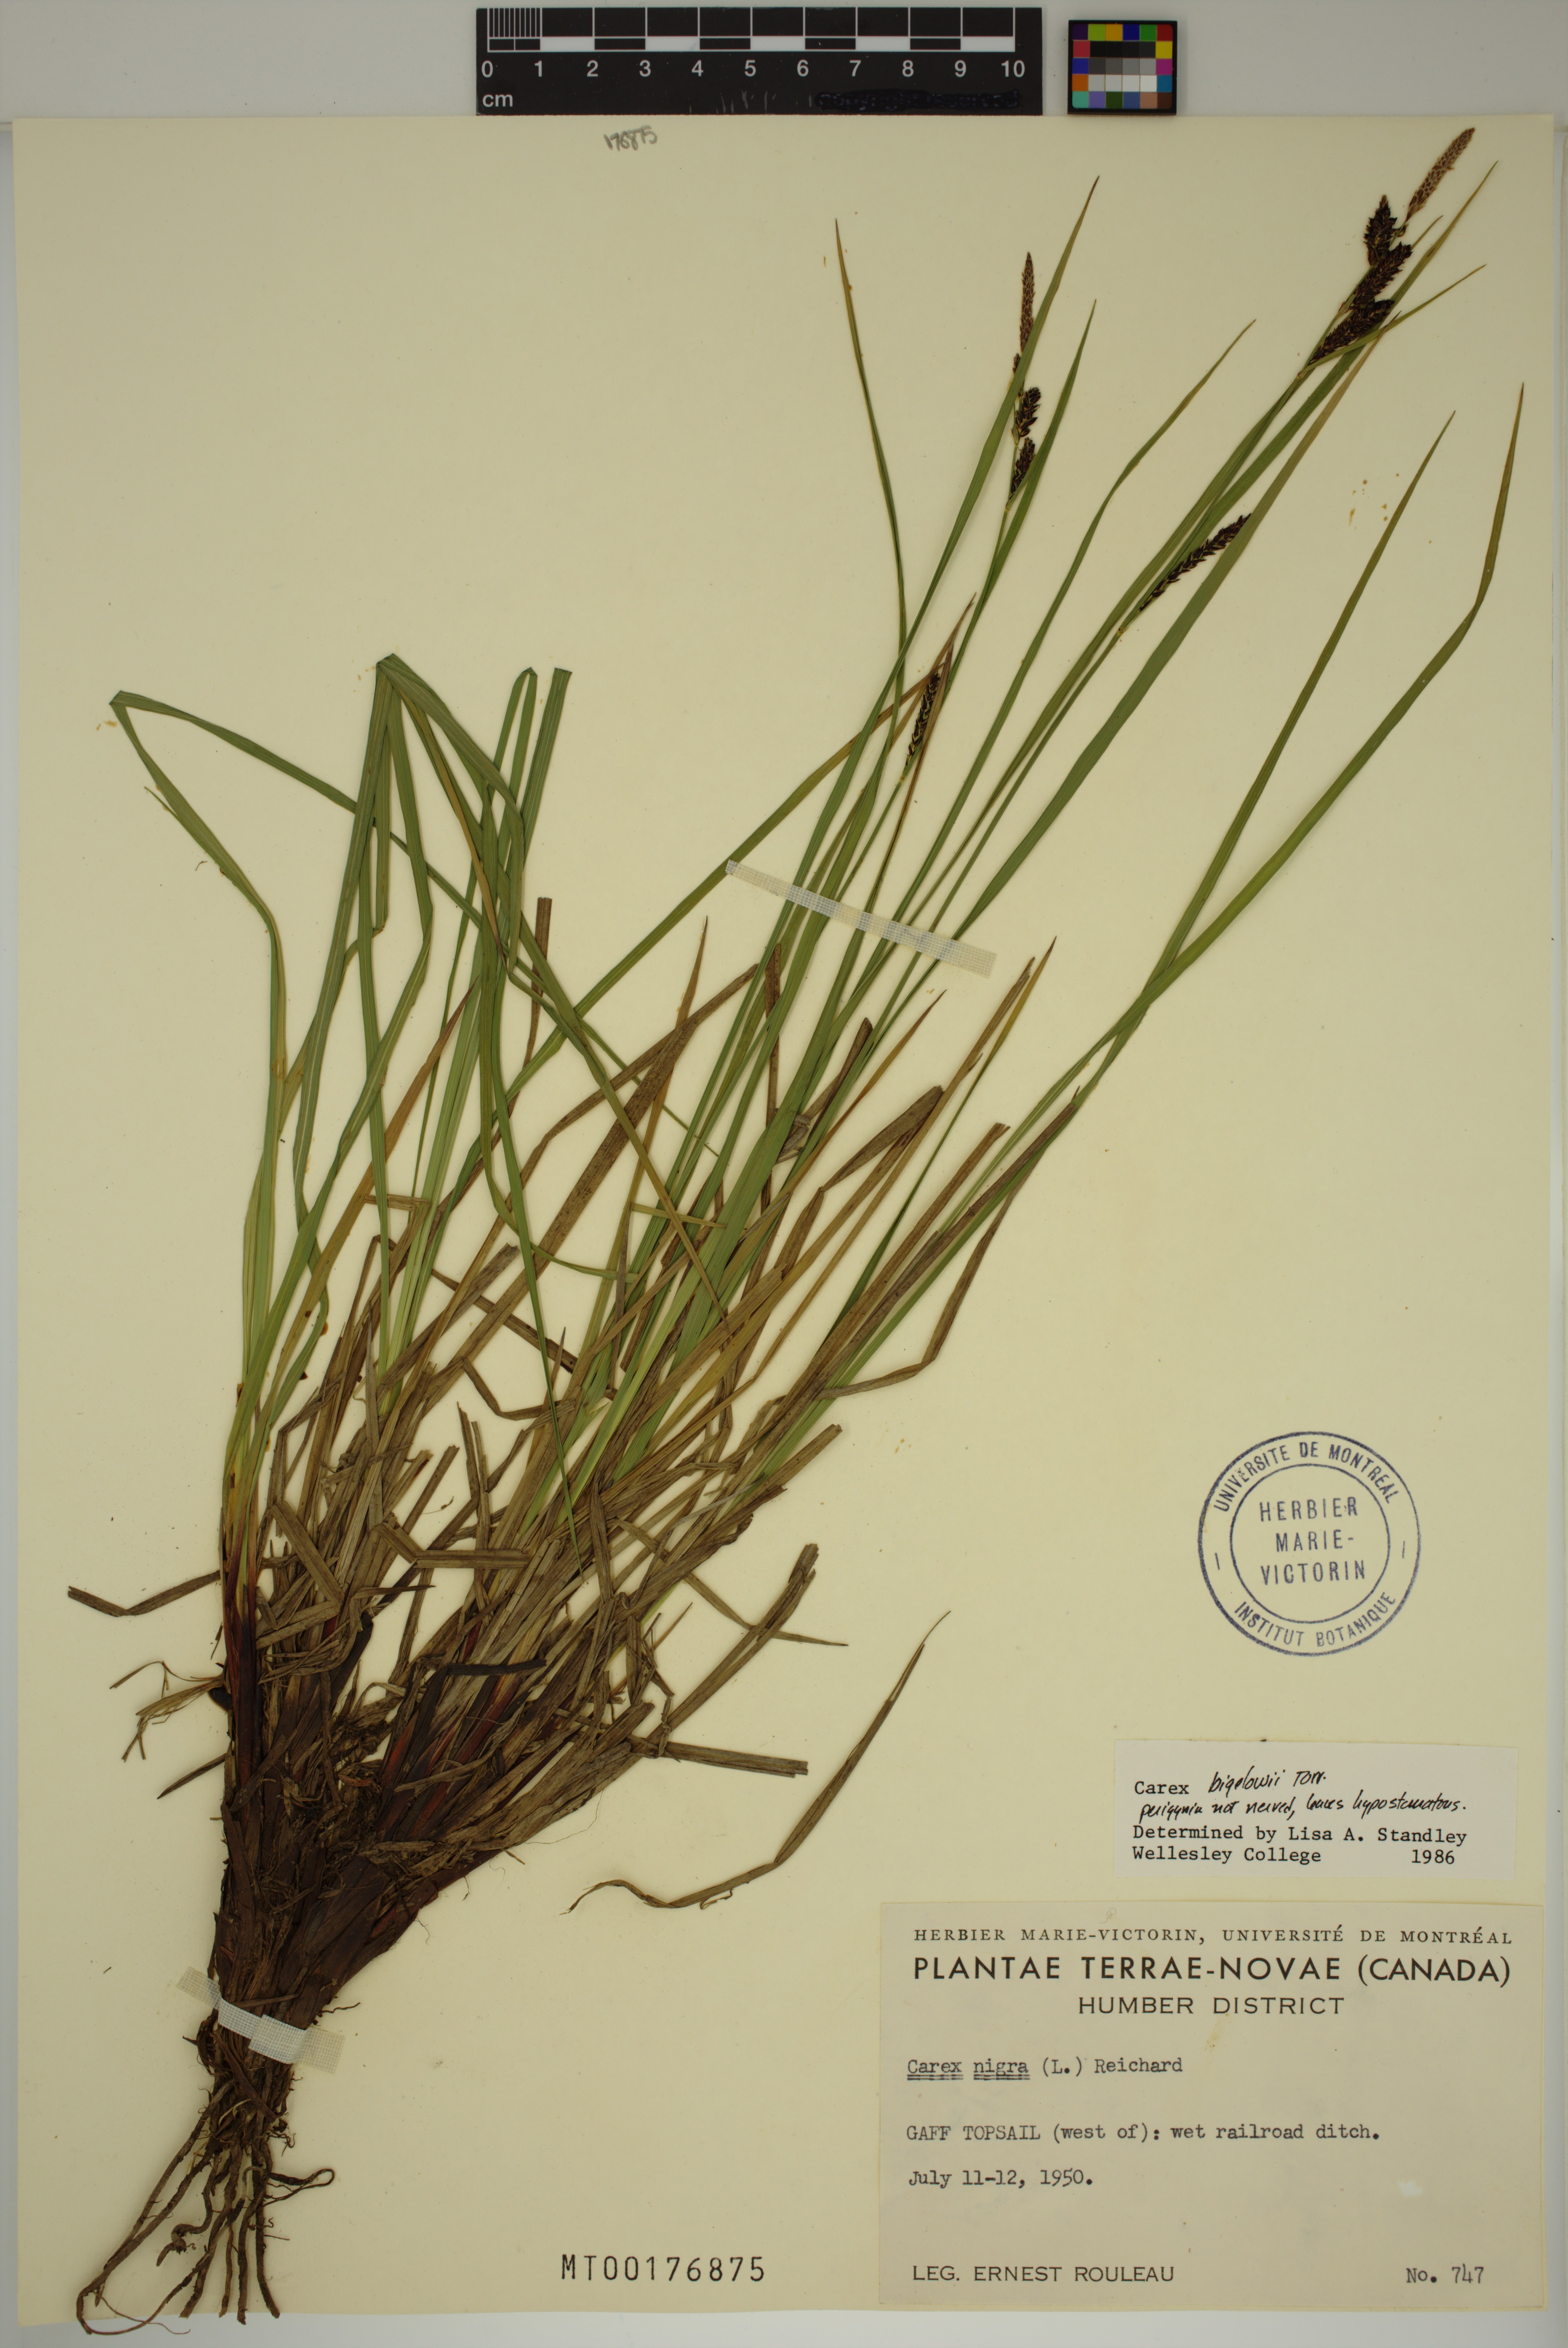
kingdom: Plantae
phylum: Tracheophyta
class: Liliopsida
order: Poales
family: Cyperaceae
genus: Carex
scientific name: Carex bigelowii
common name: Stiff sedge
